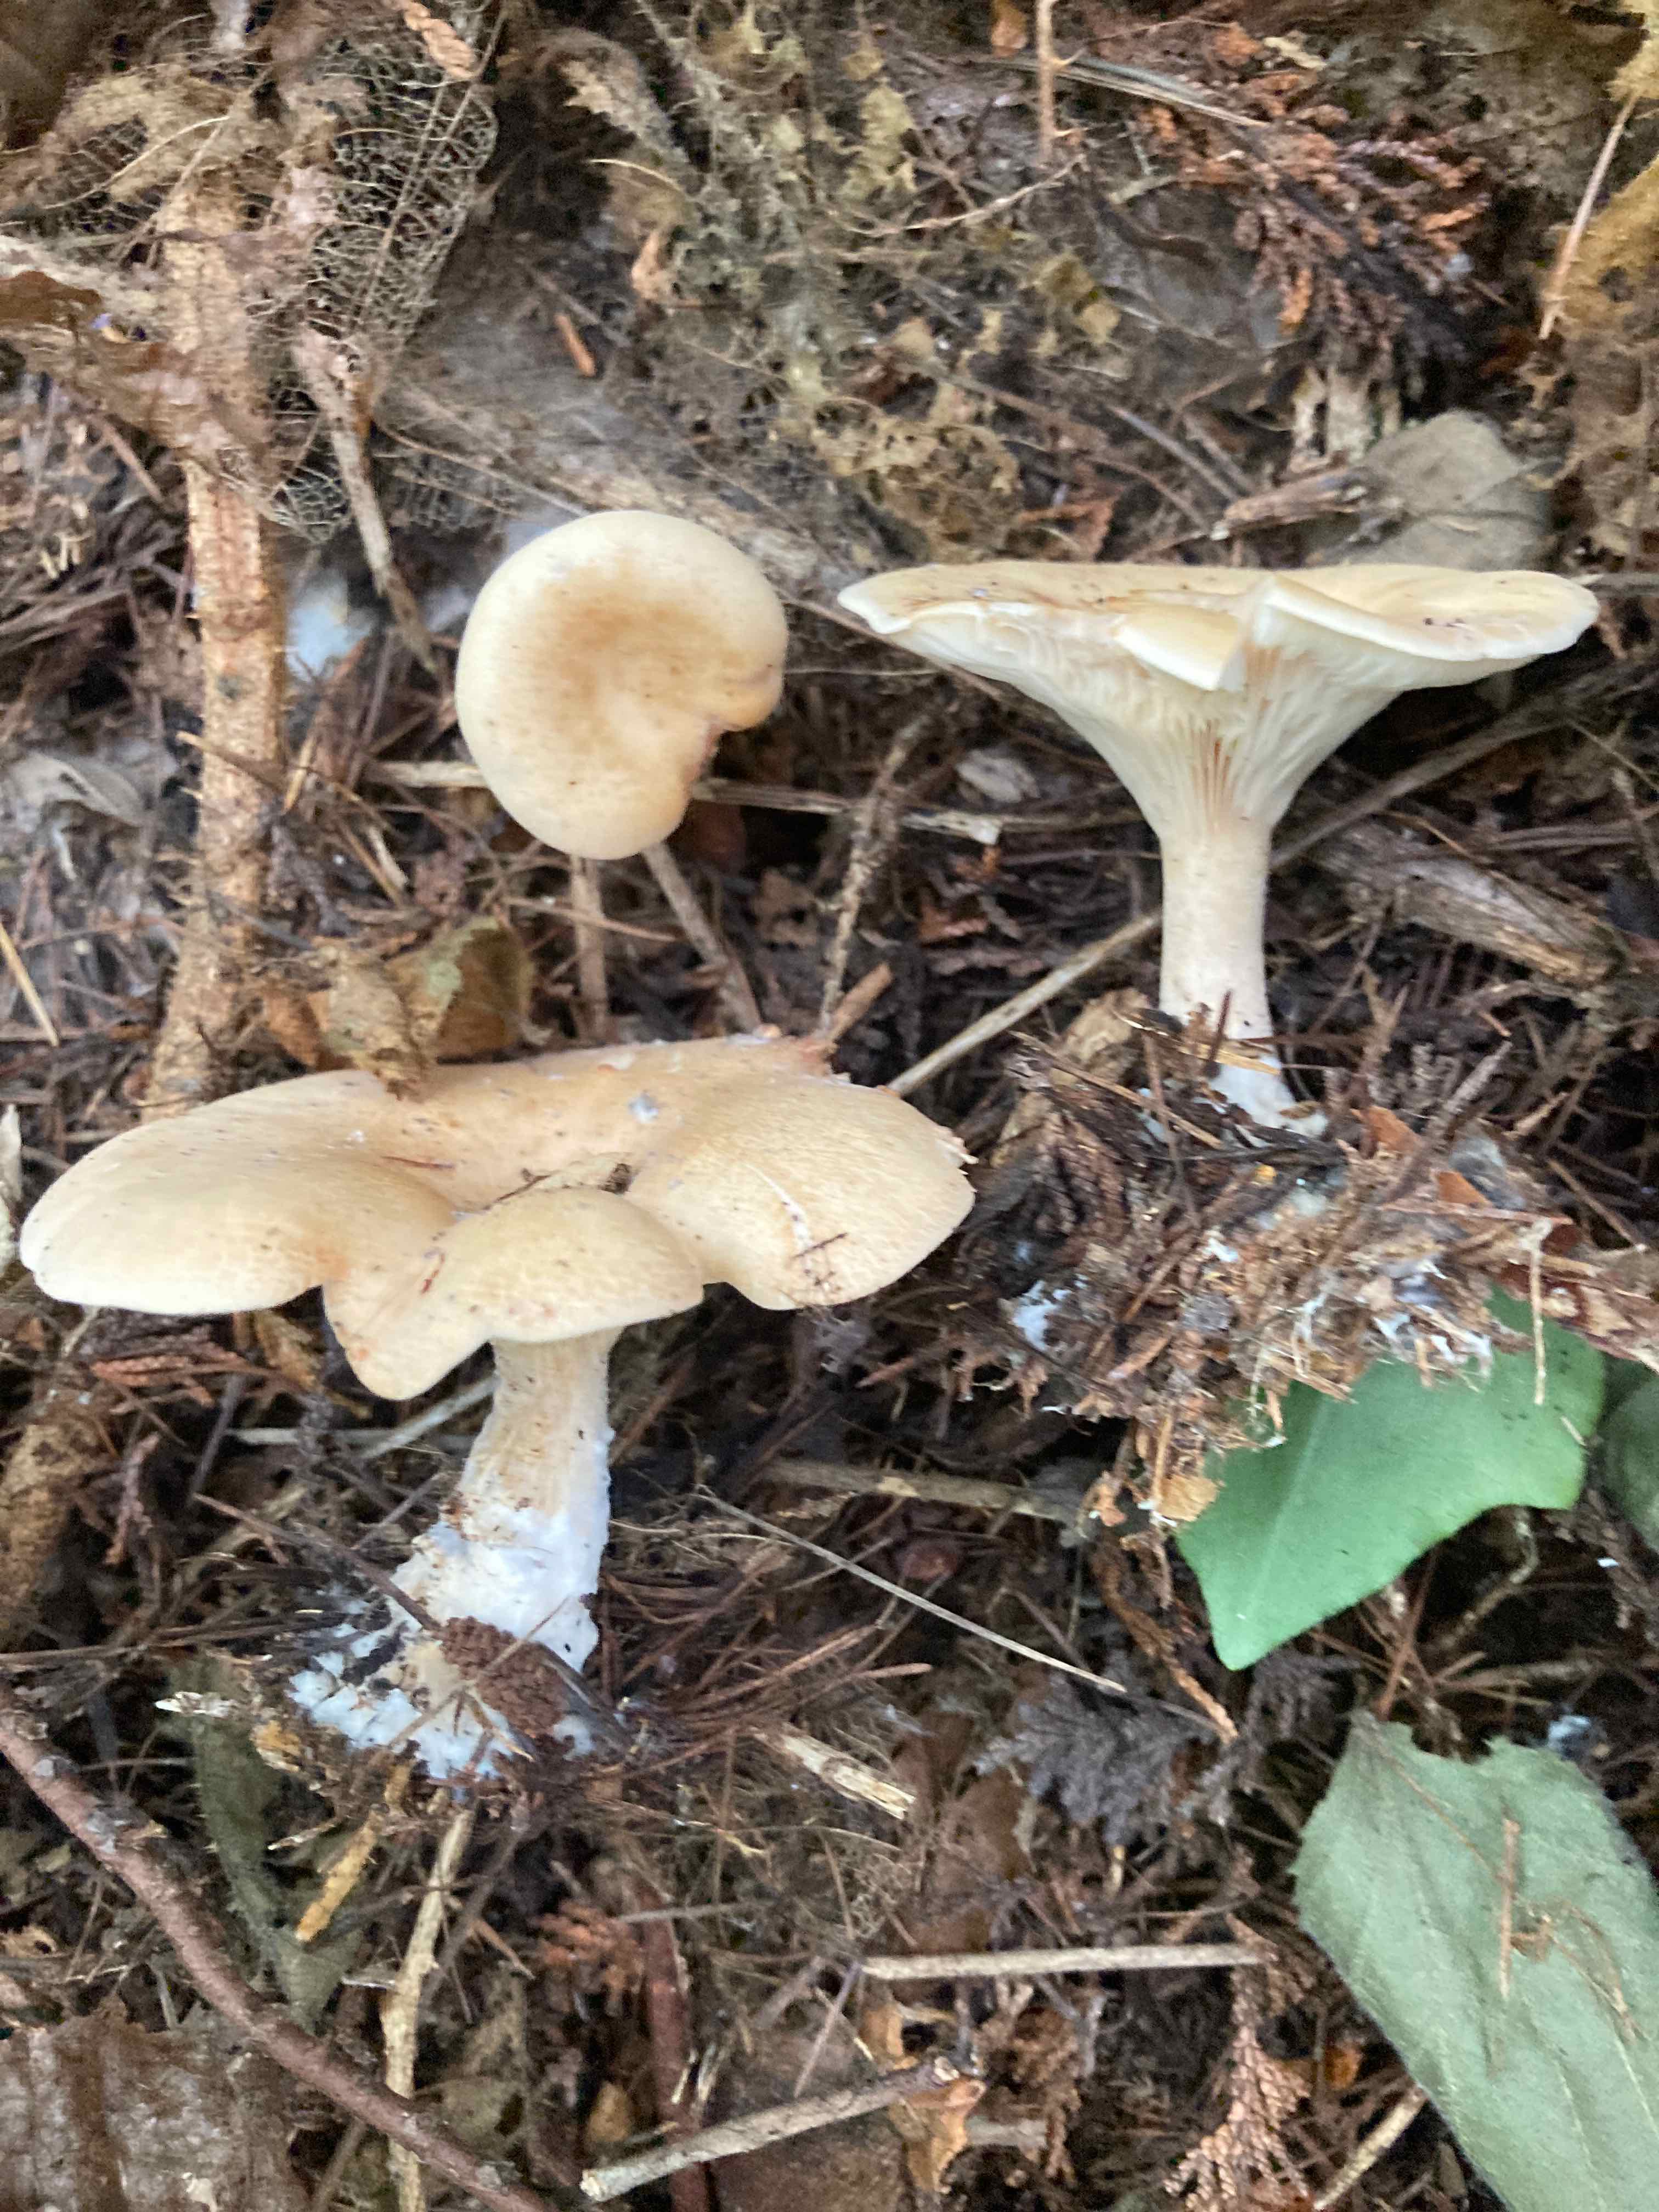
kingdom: Fungi
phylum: Basidiomycota
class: Agaricomycetes
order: Agaricales
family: Tricholomataceae
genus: Paralepista
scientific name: Paralepista gilva
